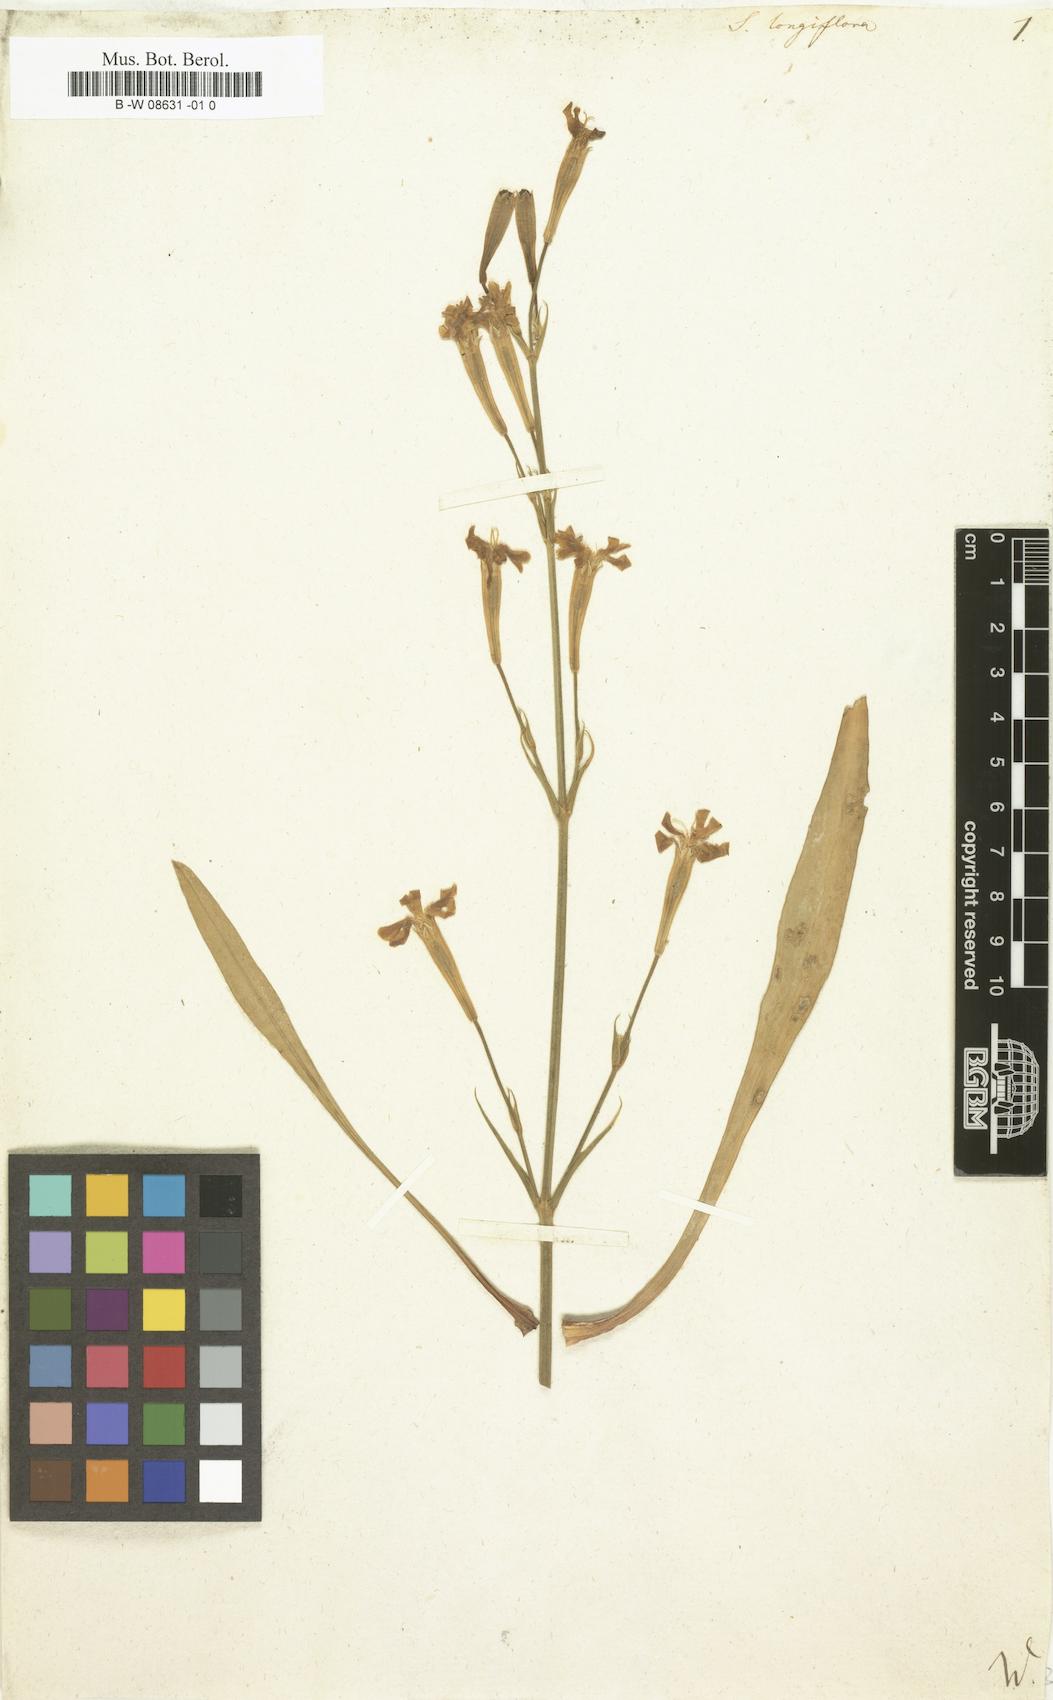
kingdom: Plantae
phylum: Tracheophyta
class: Magnoliopsida
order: Caryophyllales
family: Caryophyllaceae
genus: Silene
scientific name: Silene
